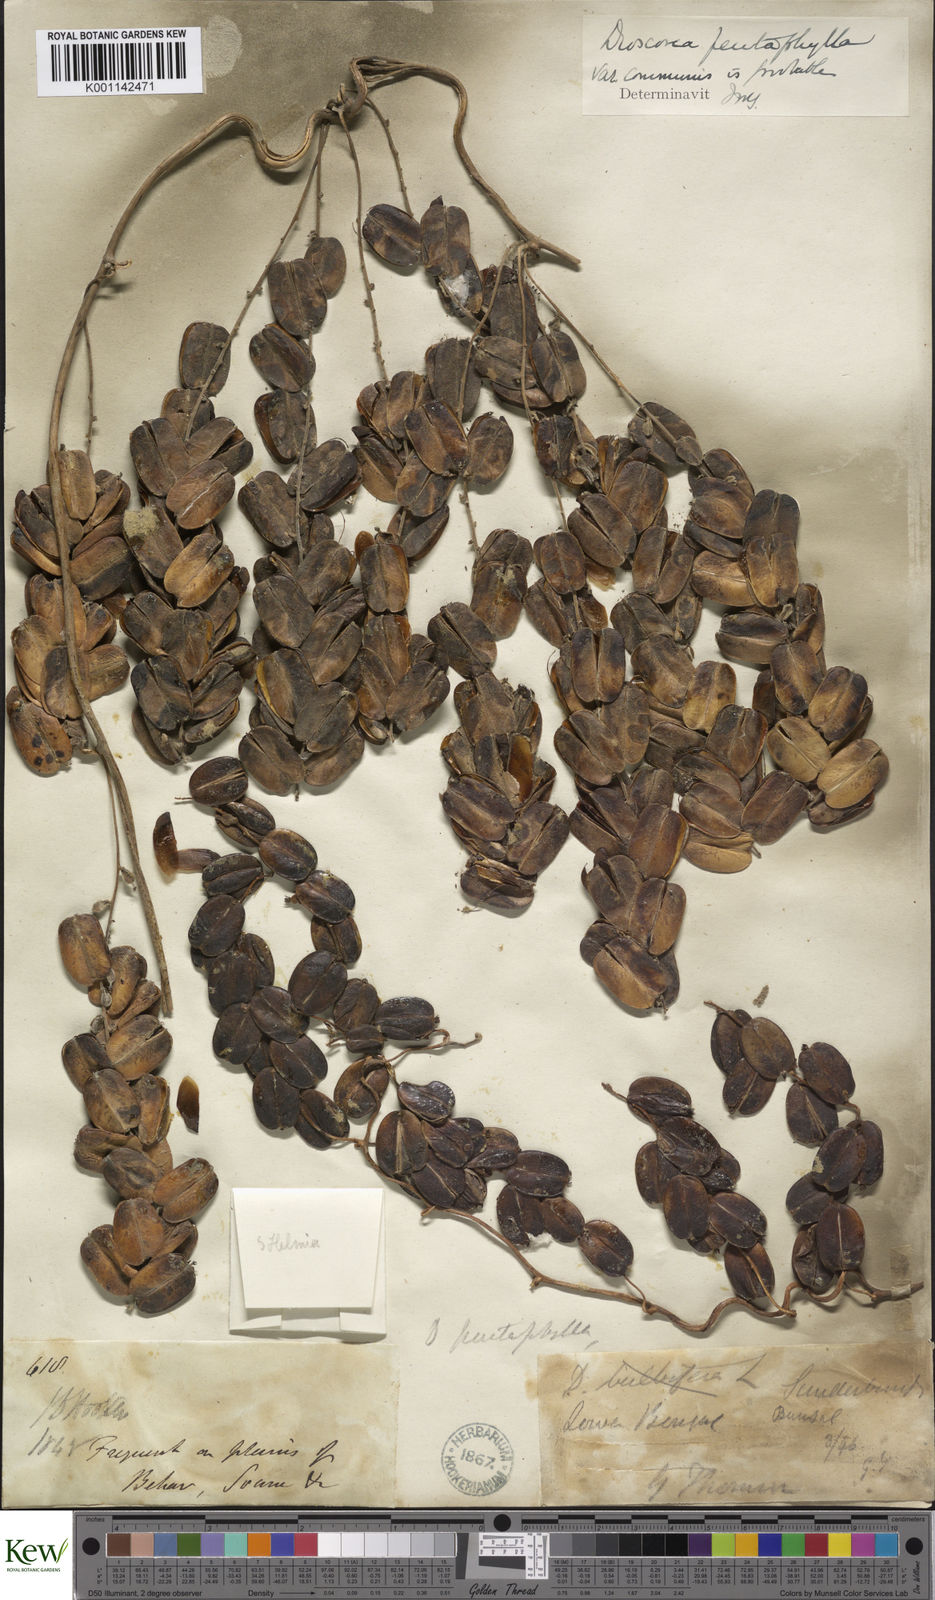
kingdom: Plantae
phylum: Tracheophyta
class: Liliopsida
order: Dioscoreales
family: Dioscoreaceae
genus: Dioscorea
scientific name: Dioscorea pentaphylla
